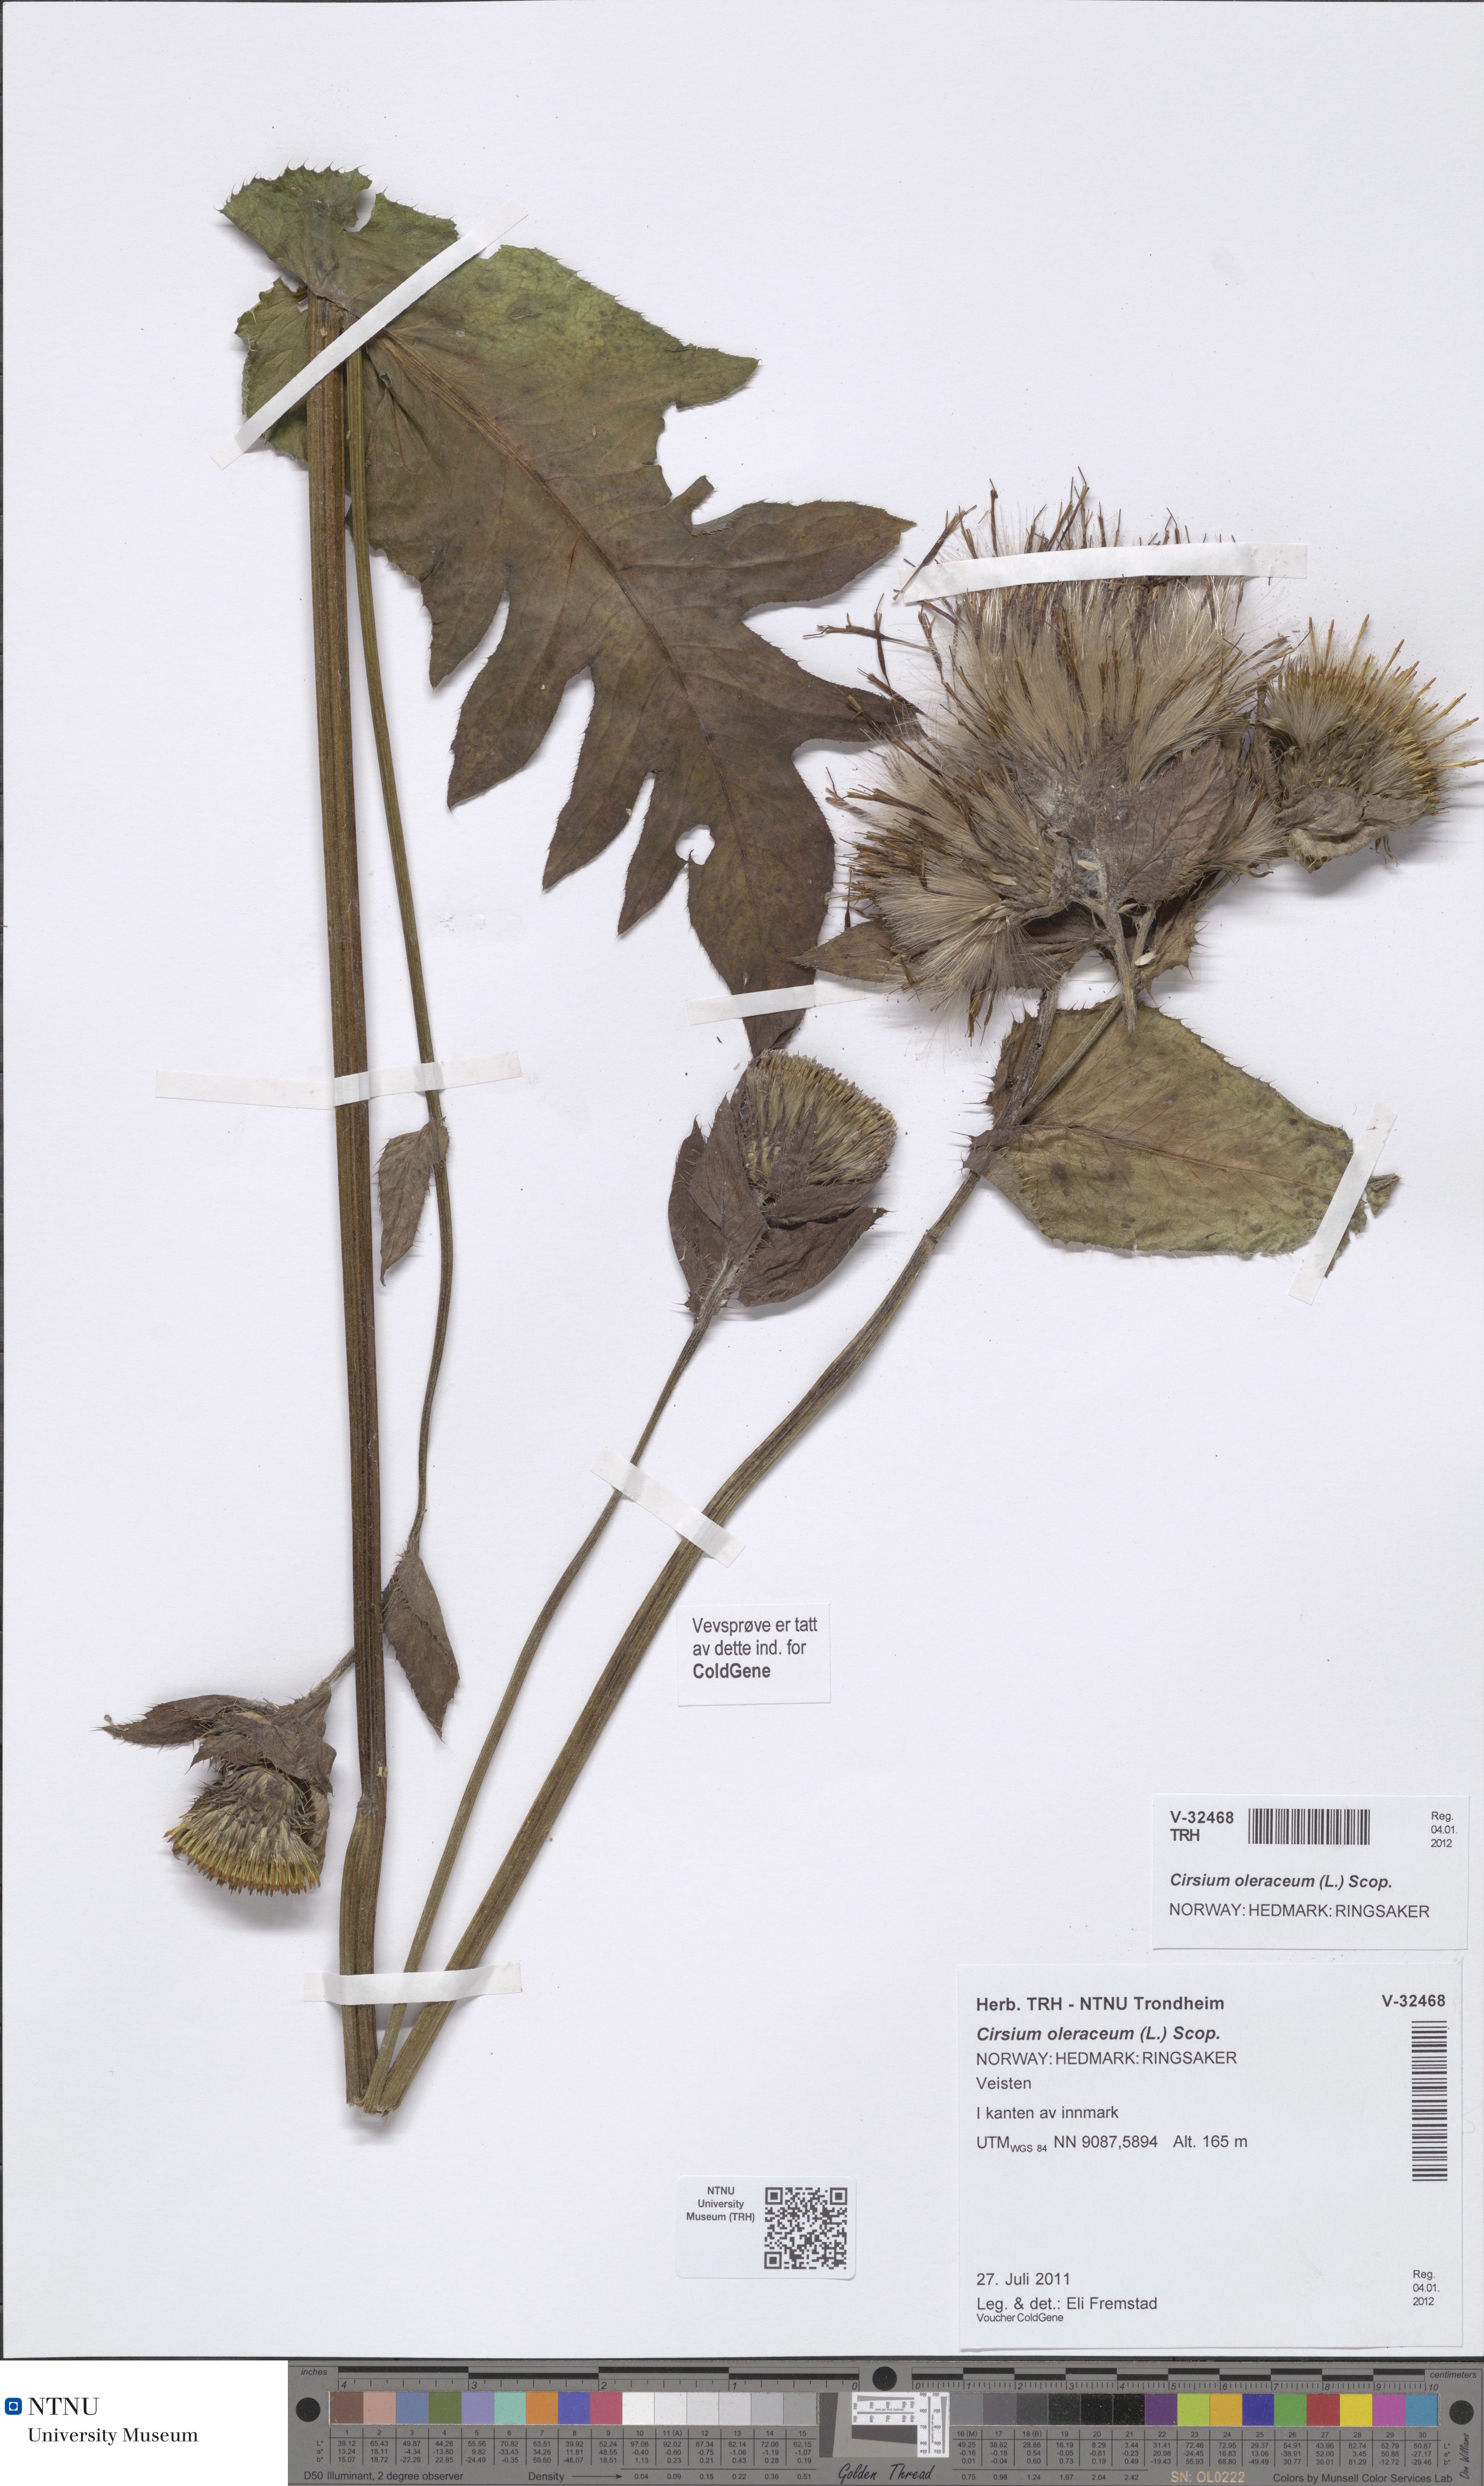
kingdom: Plantae
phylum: Tracheophyta
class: Magnoliopsida
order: Asterales
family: Asteraceae
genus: Cirsium
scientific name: Cirsium oleraceum
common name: Cabbage thistle
